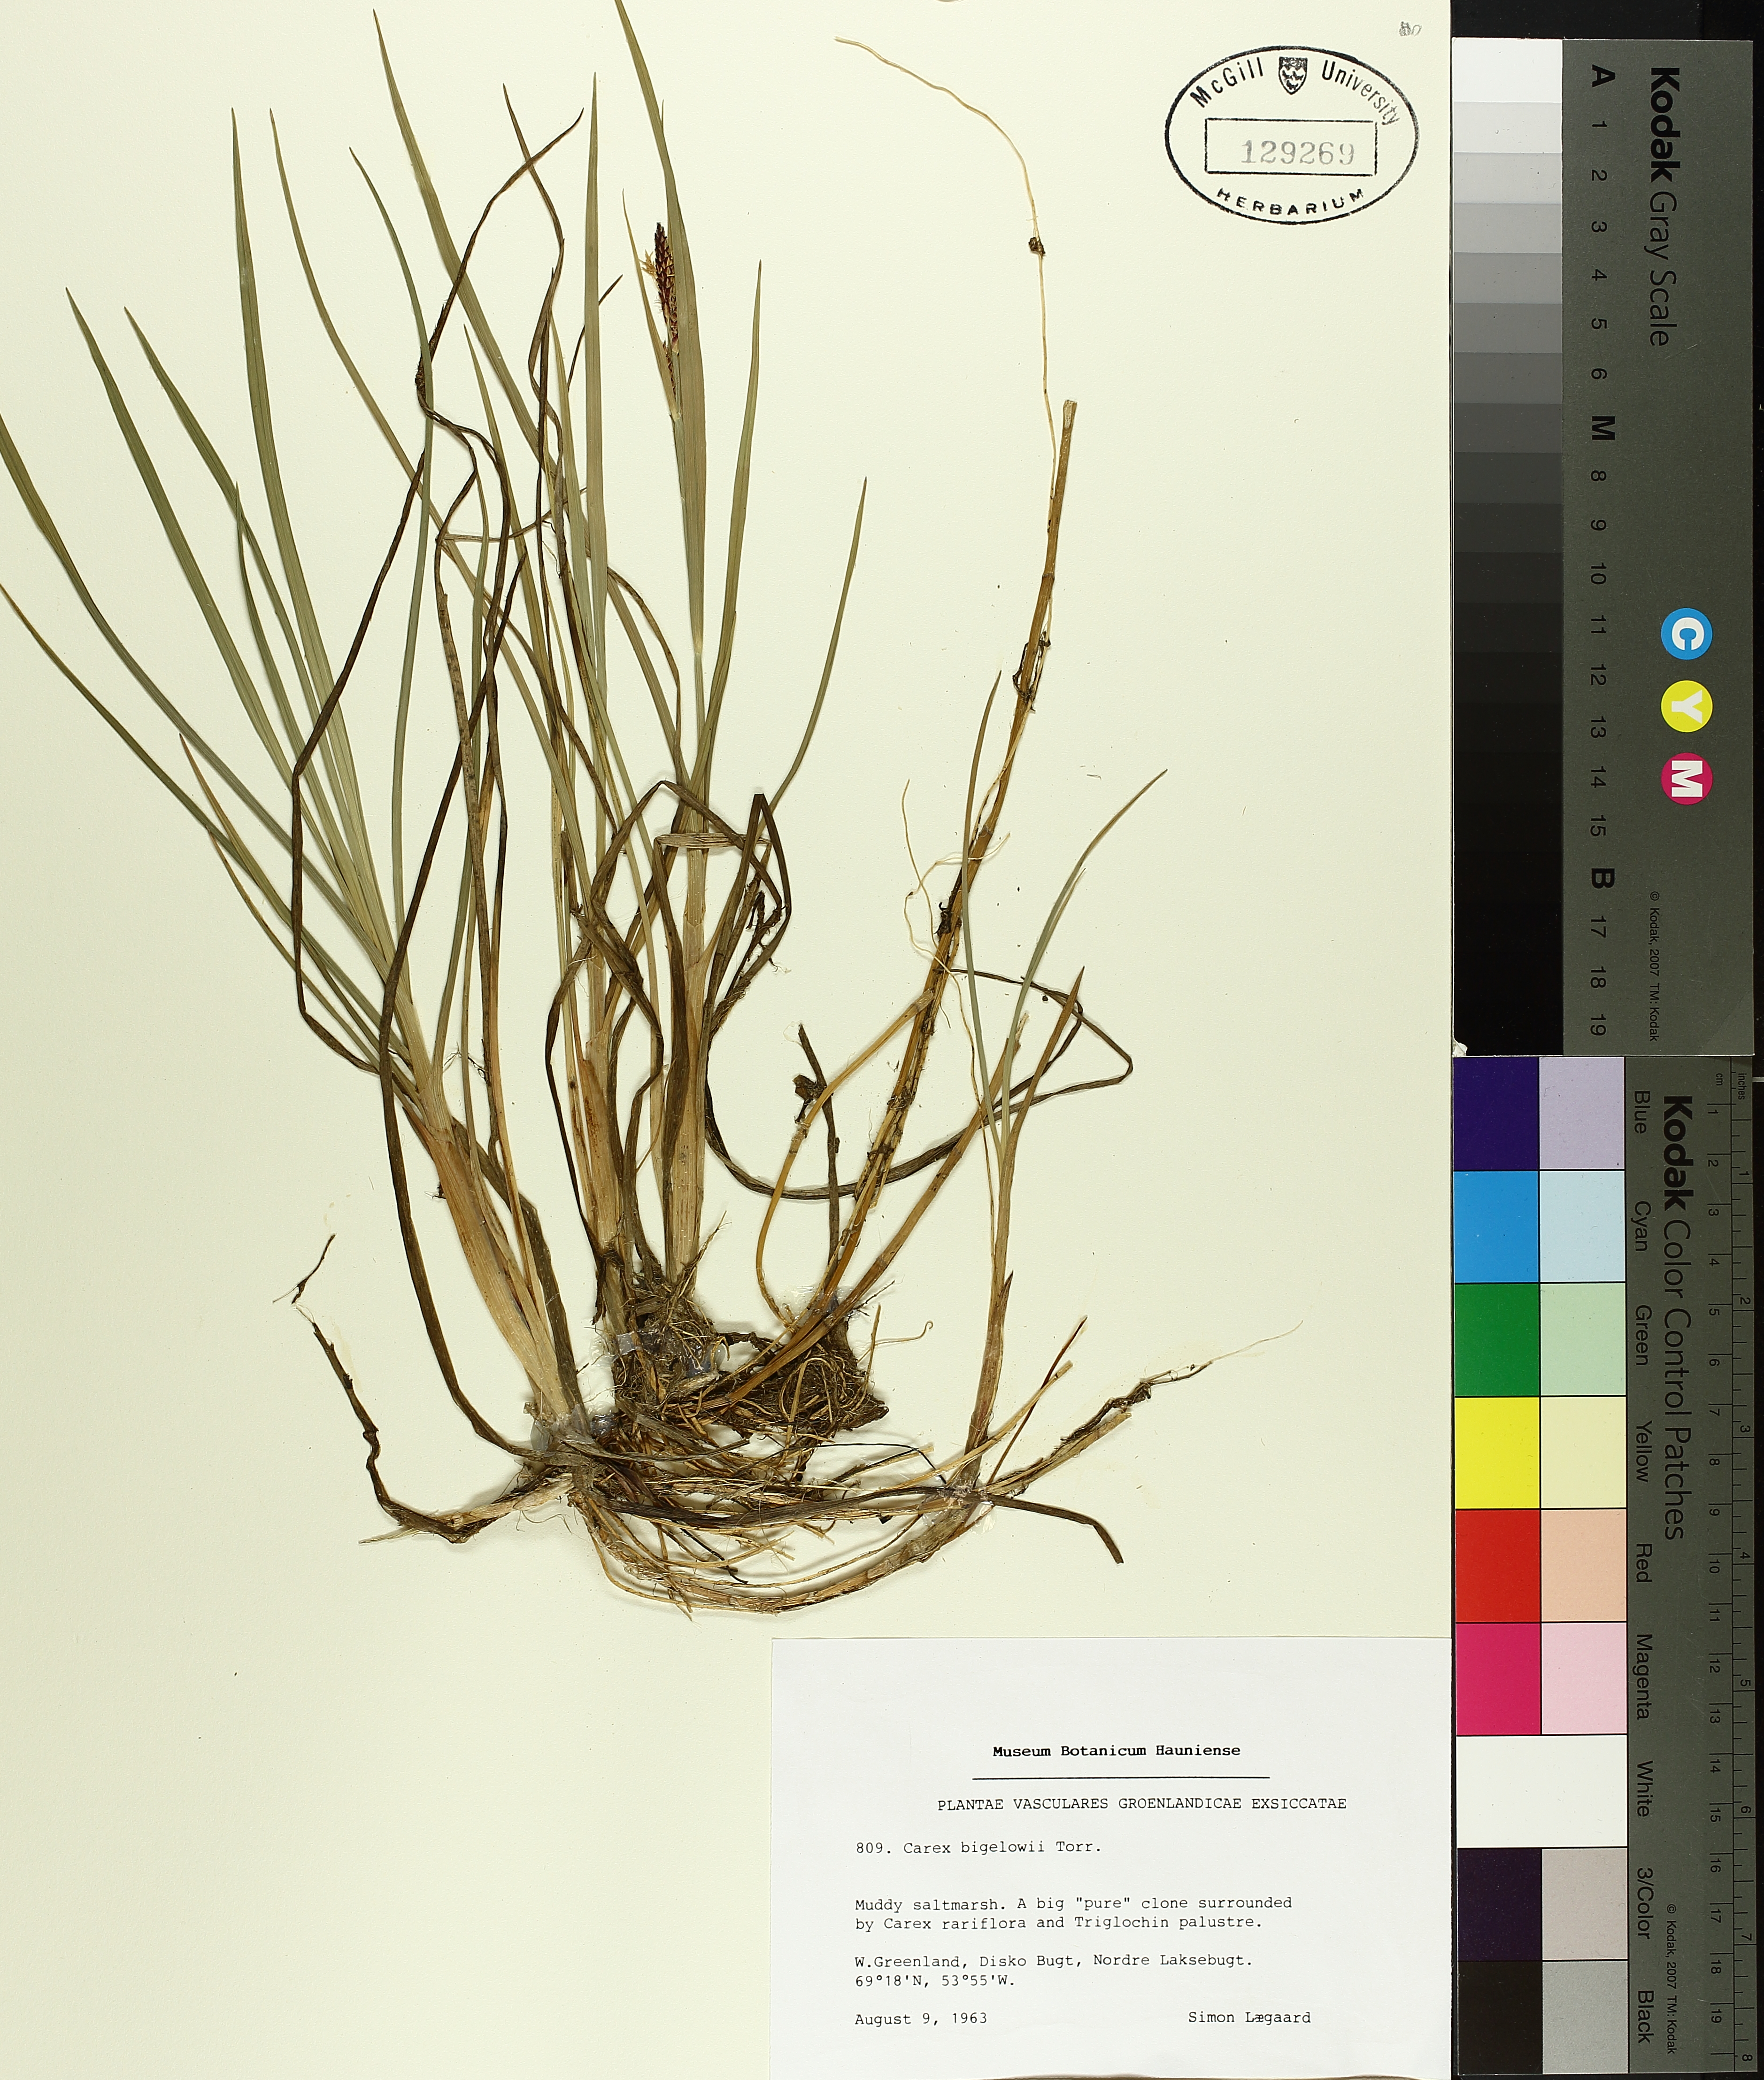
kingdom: Plantae
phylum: Tracheophyta
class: Liliopsida
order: Poales
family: Cyperaceae
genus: Carex
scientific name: Carex bigelowii
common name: Stiff sedge
